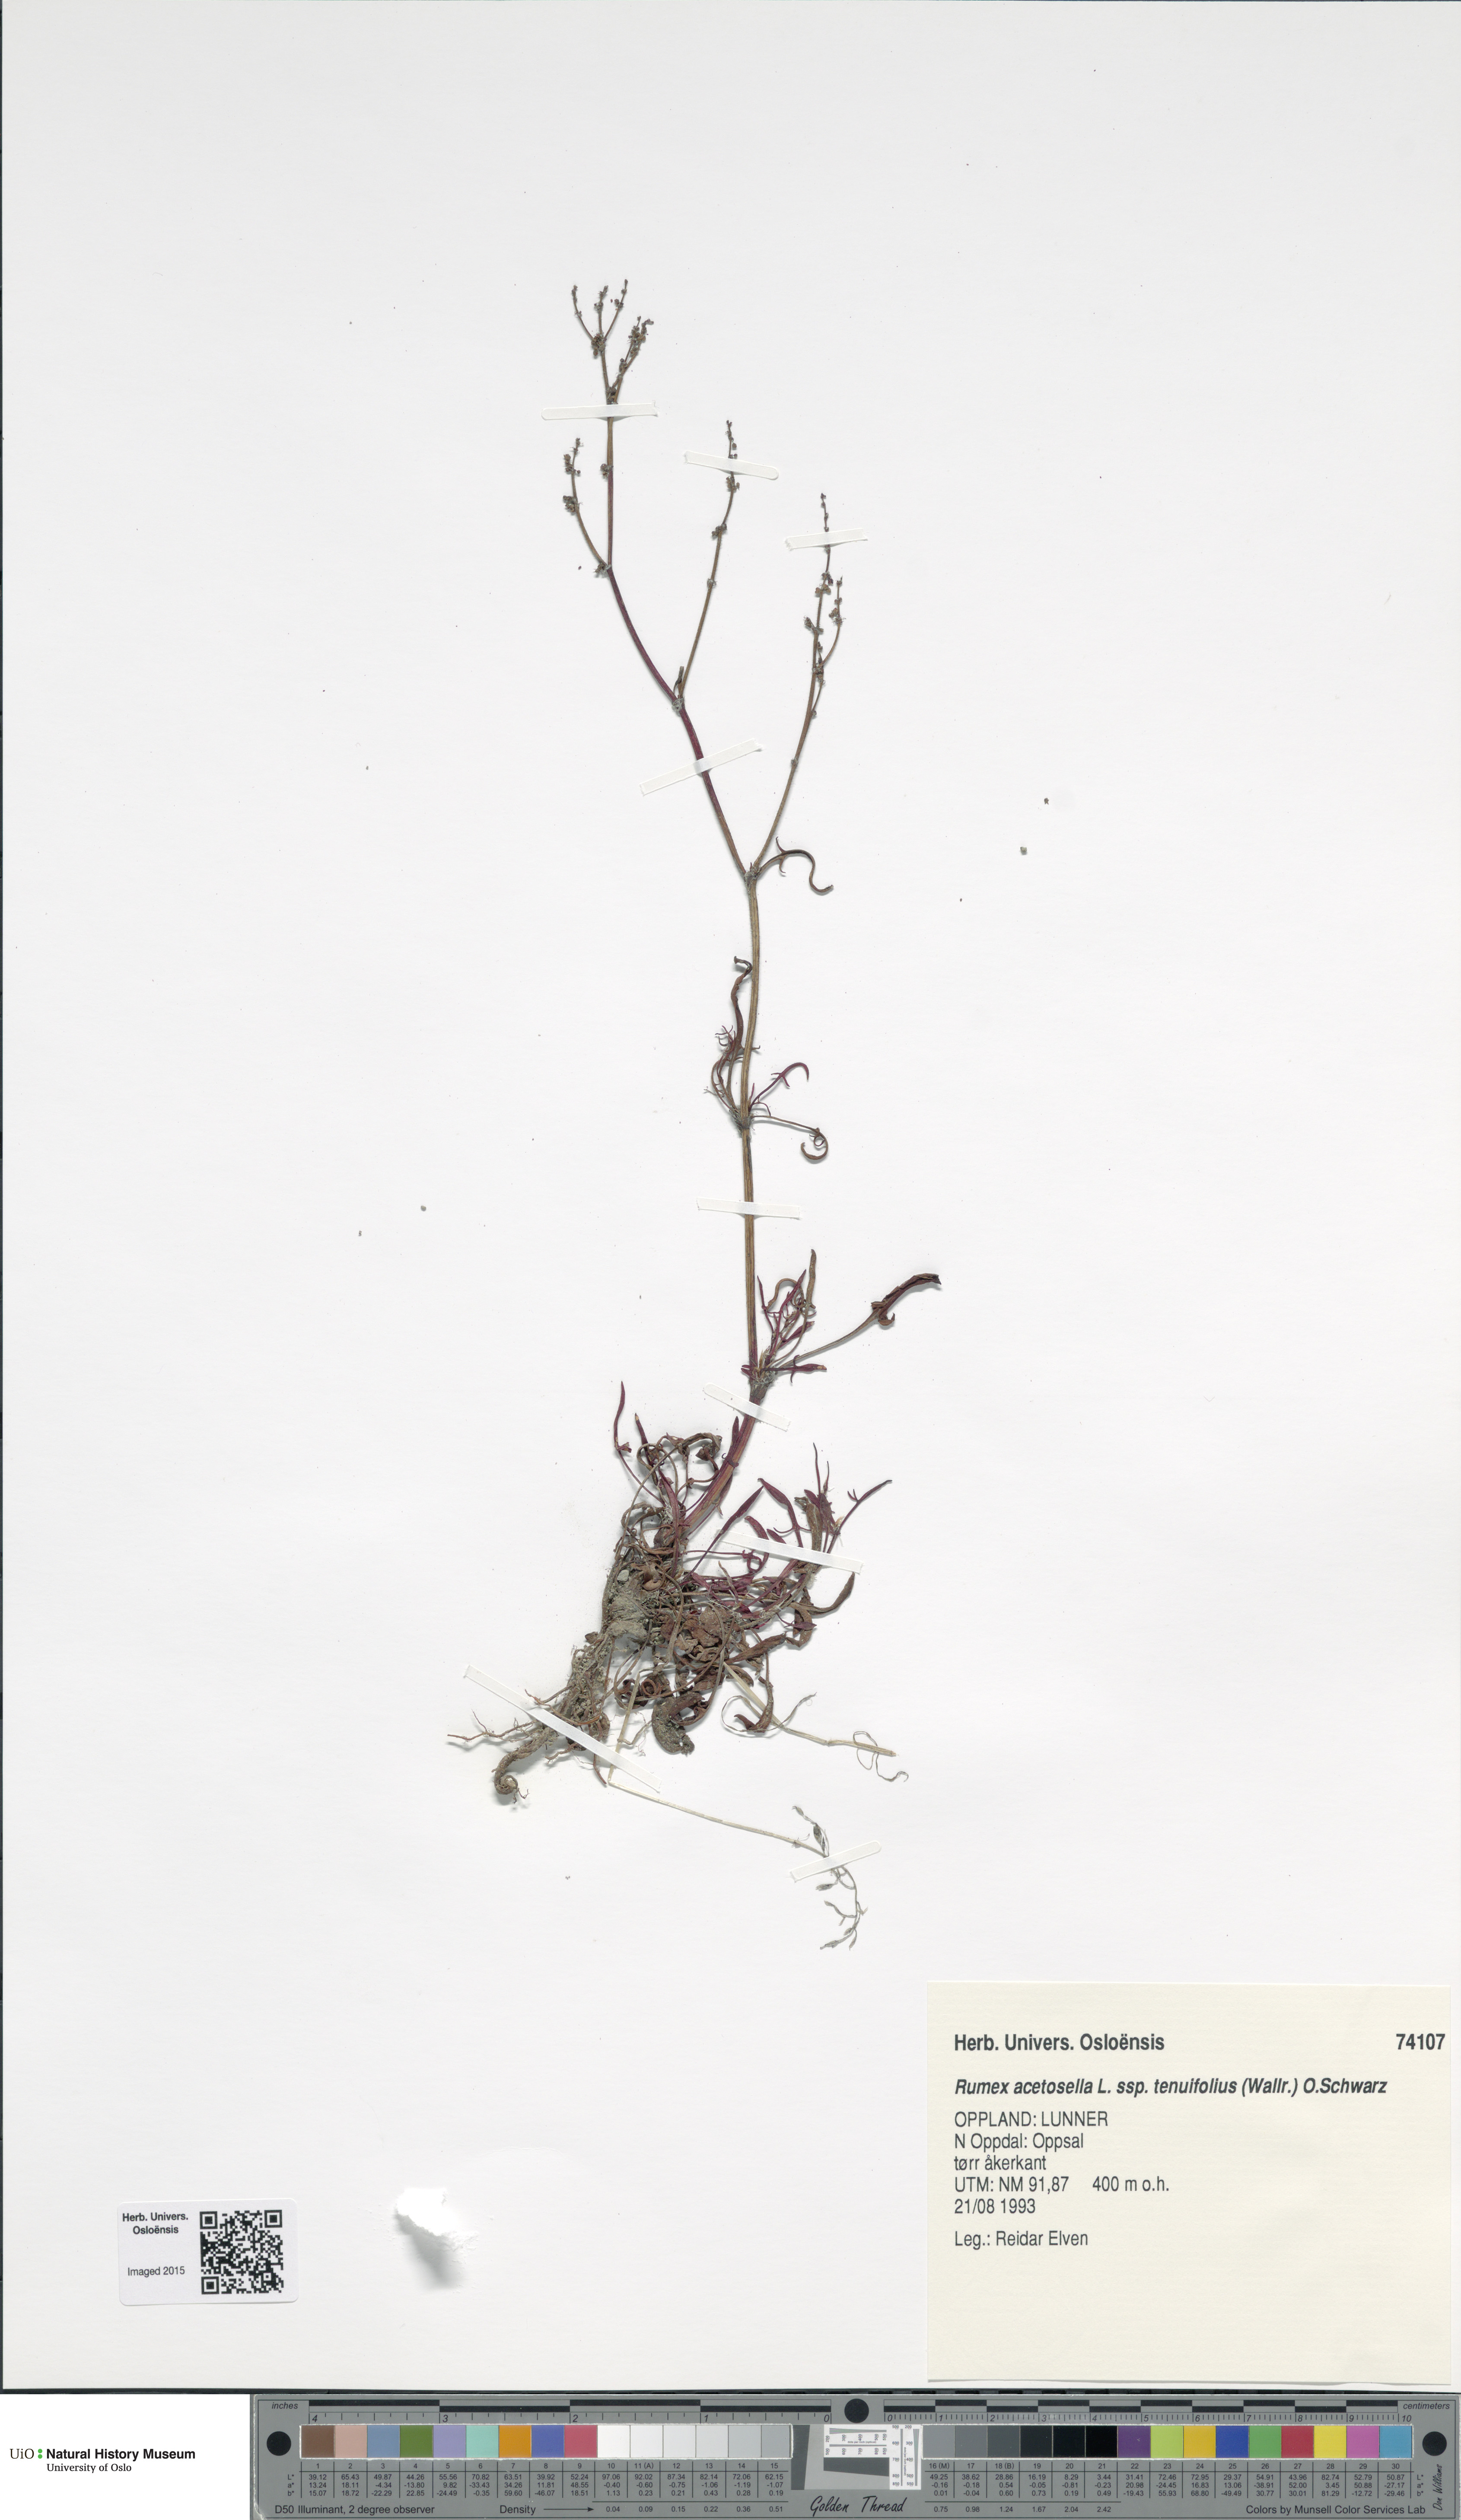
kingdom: Plantae
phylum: Tracheophyta
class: Magnoliopsida
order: Caryophyllales
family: Polygonaceae
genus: Rumex
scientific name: Rumex acetosella
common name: Common sheep sorrel
